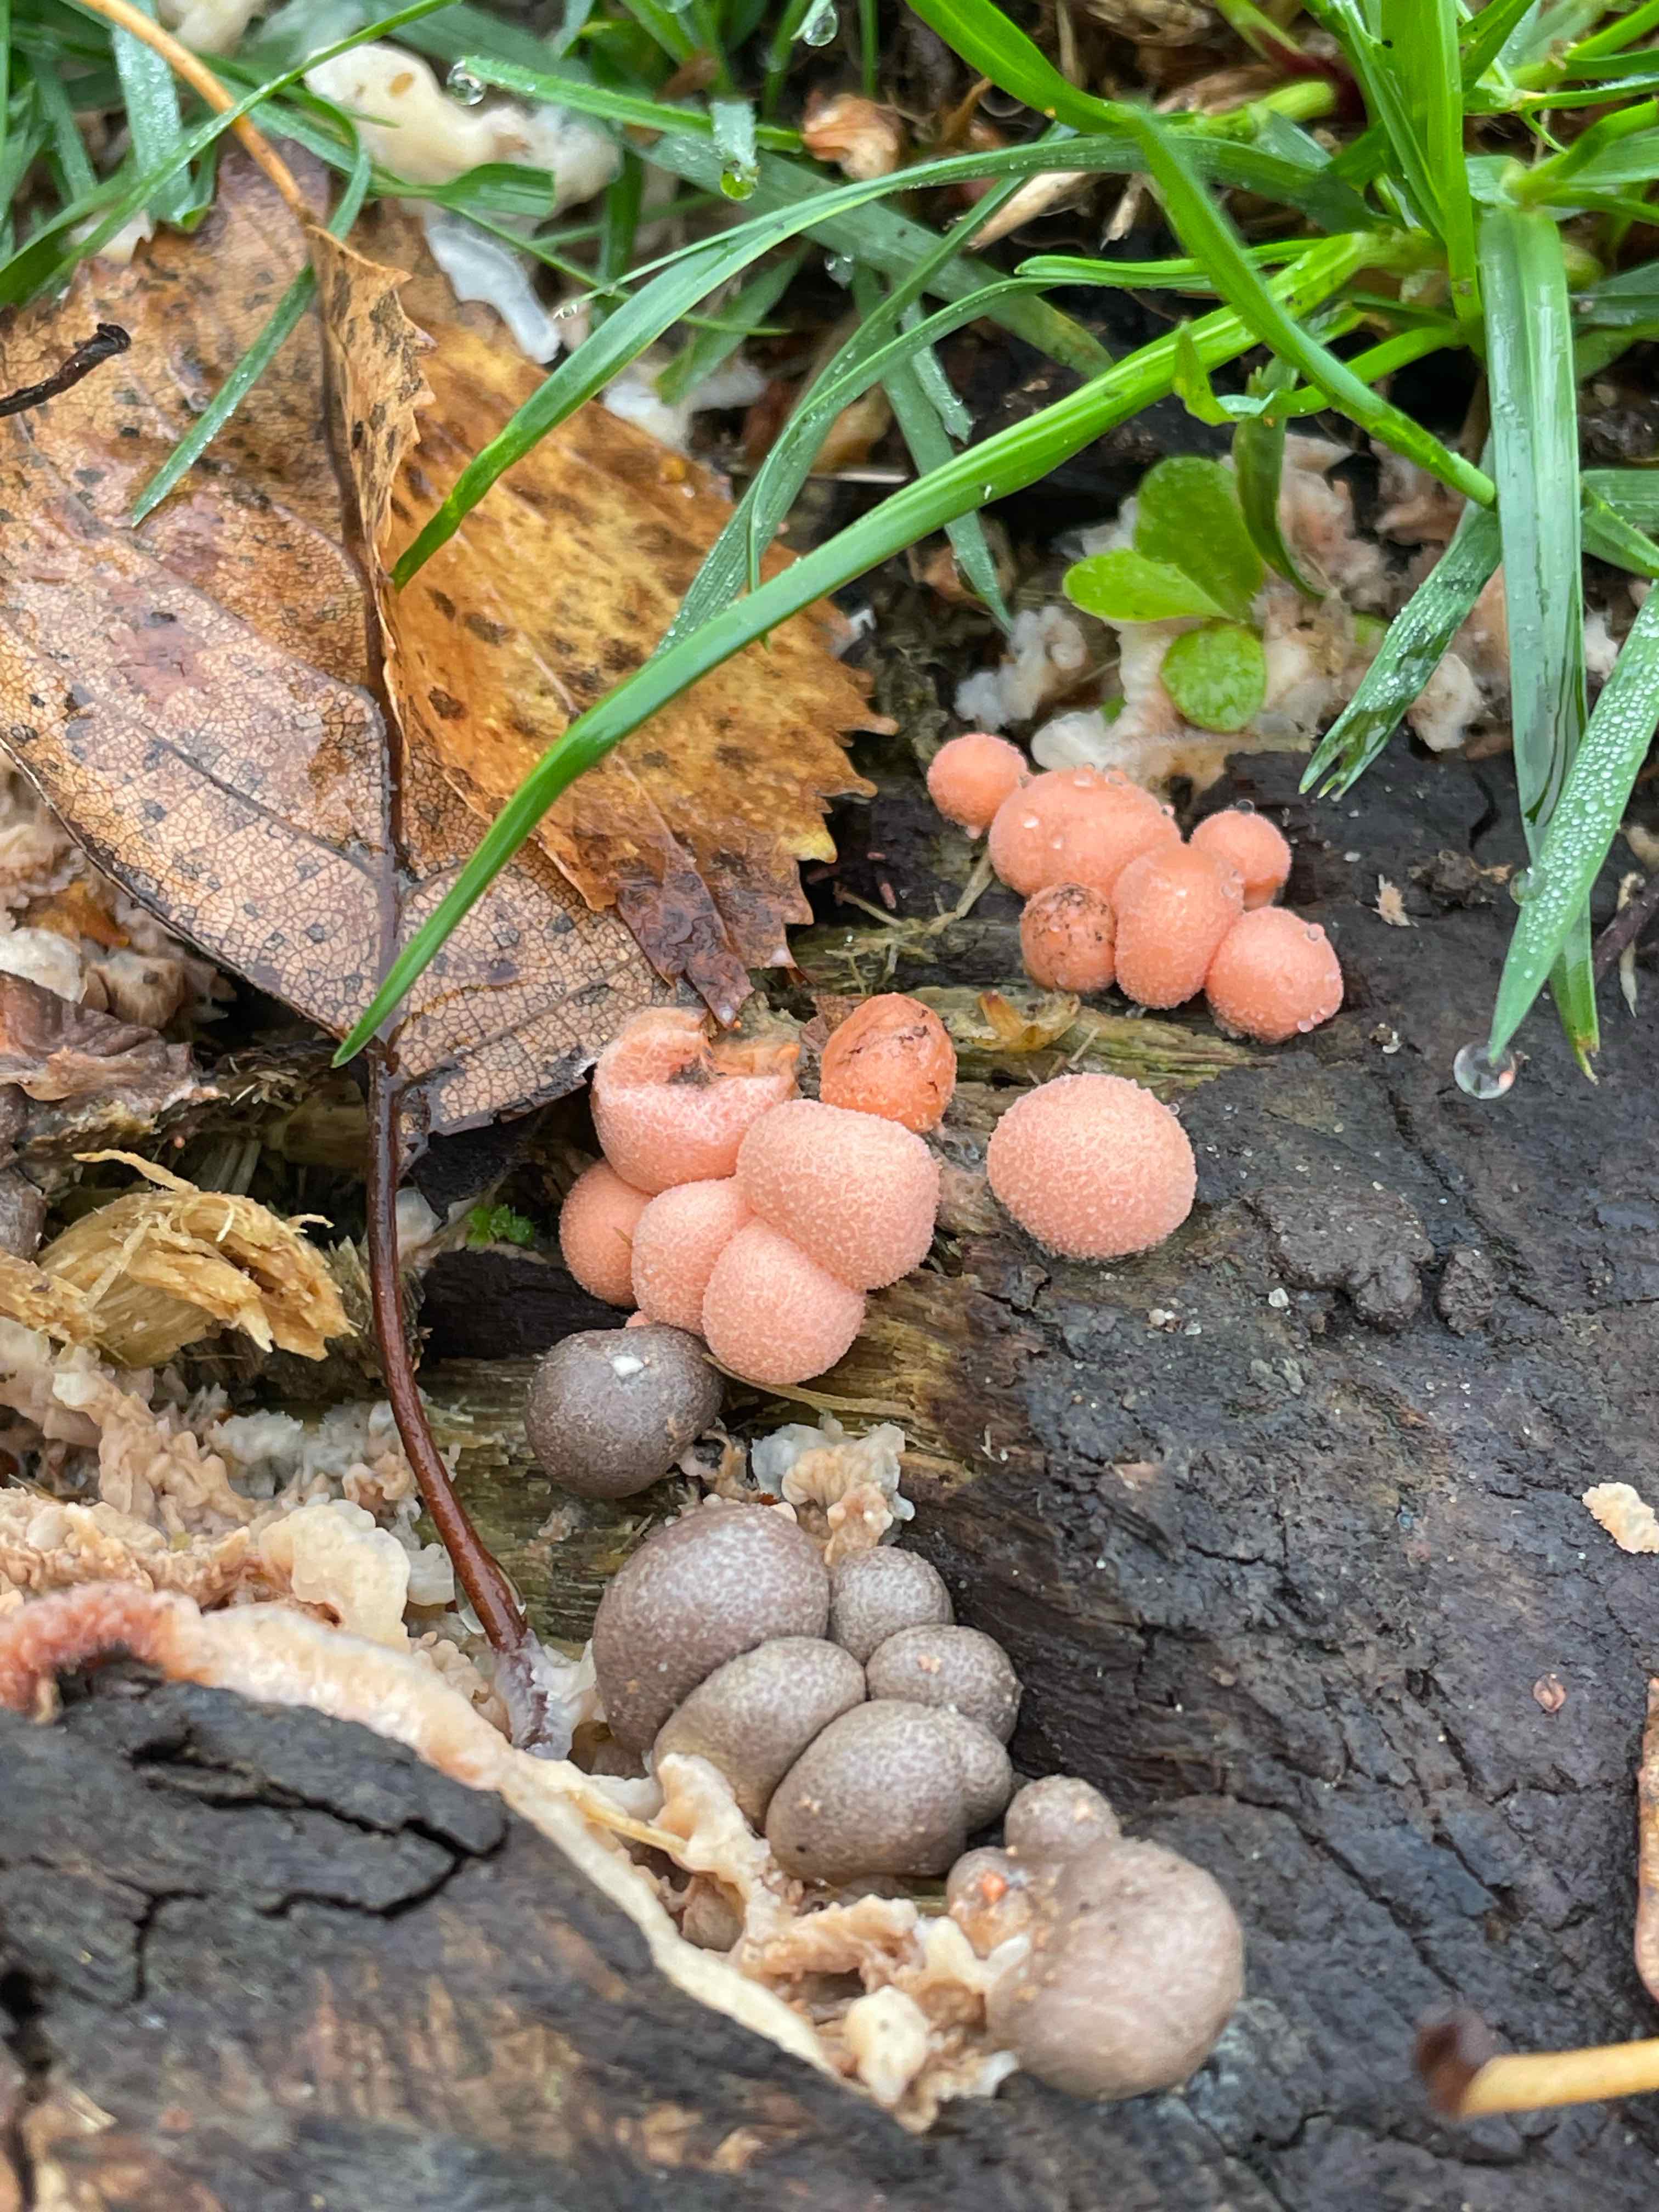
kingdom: Protozoa
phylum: Mycetozoa
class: Myxomycetes
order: Cribrariales
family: Tubiferaceae
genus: Lycogala
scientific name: Lycogala epidendrum
